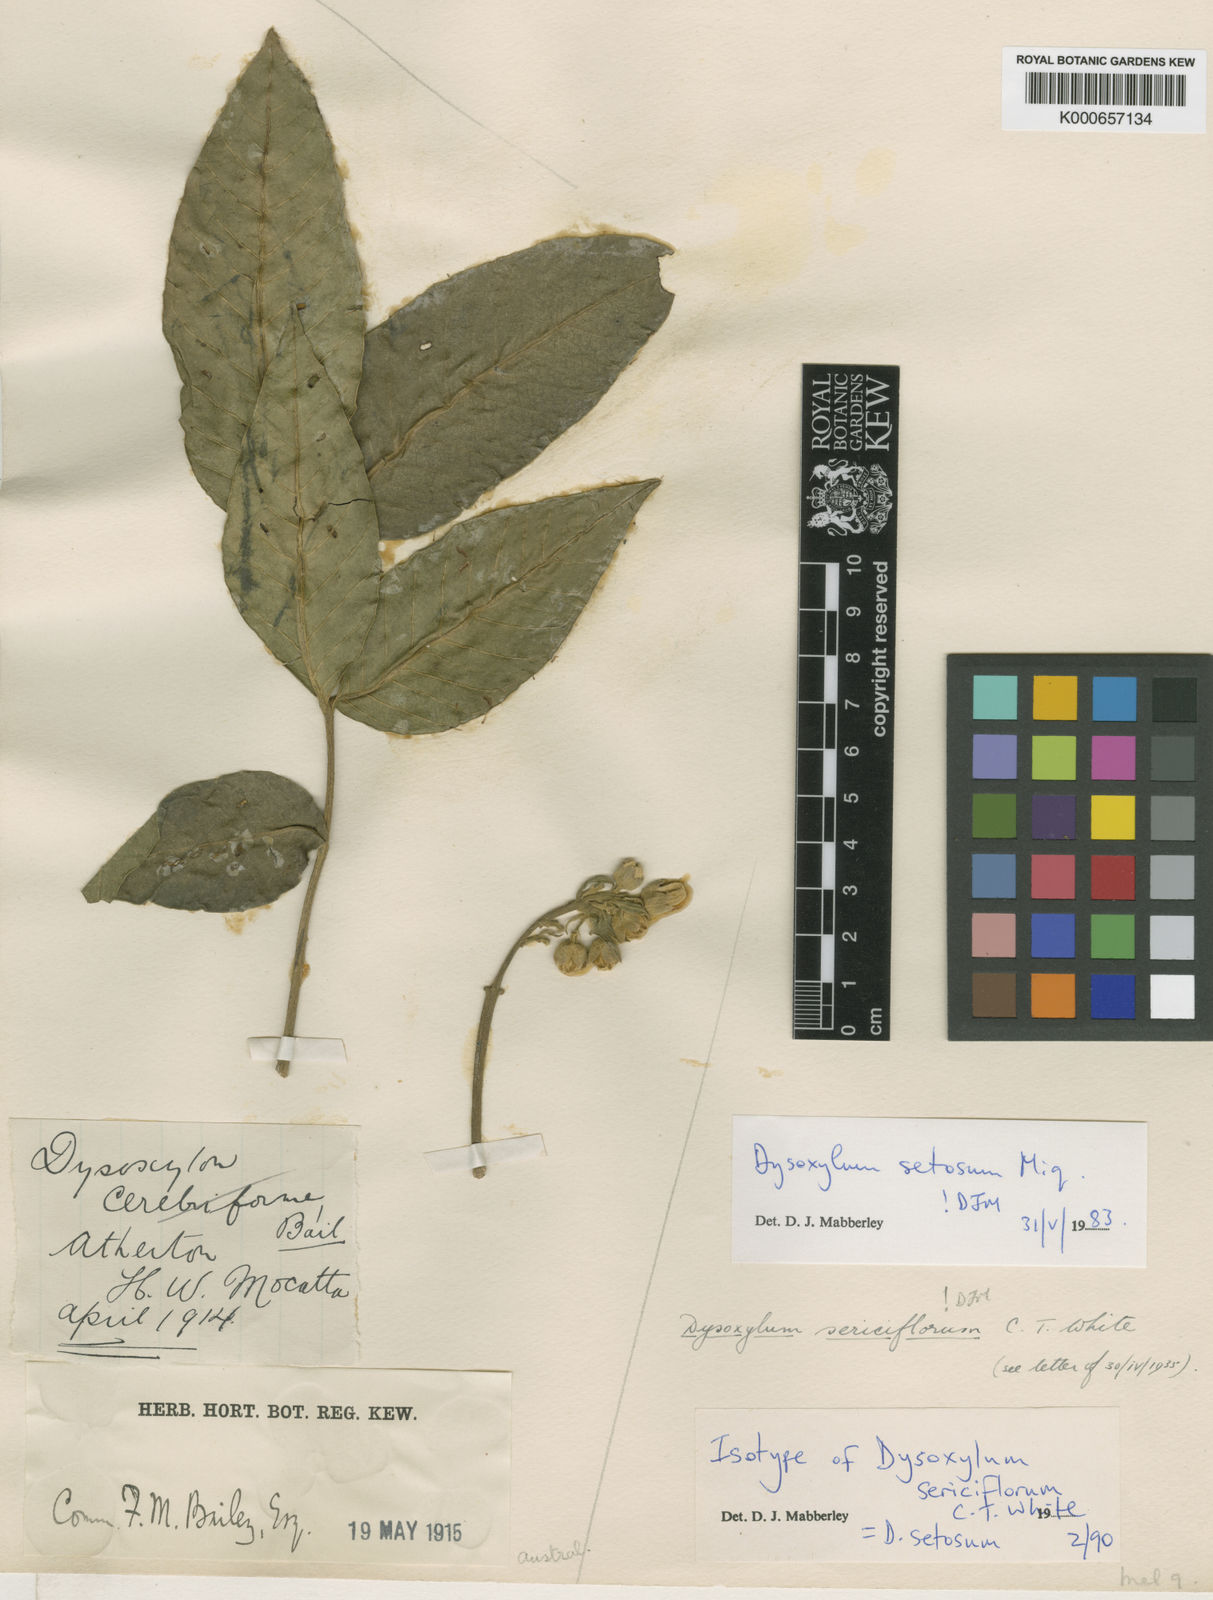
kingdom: Plantae
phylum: Tracheophyta
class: Magnoliopsida
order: Sapindales
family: Meliaceae
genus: Didymocheton
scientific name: Didymocheton setosus
